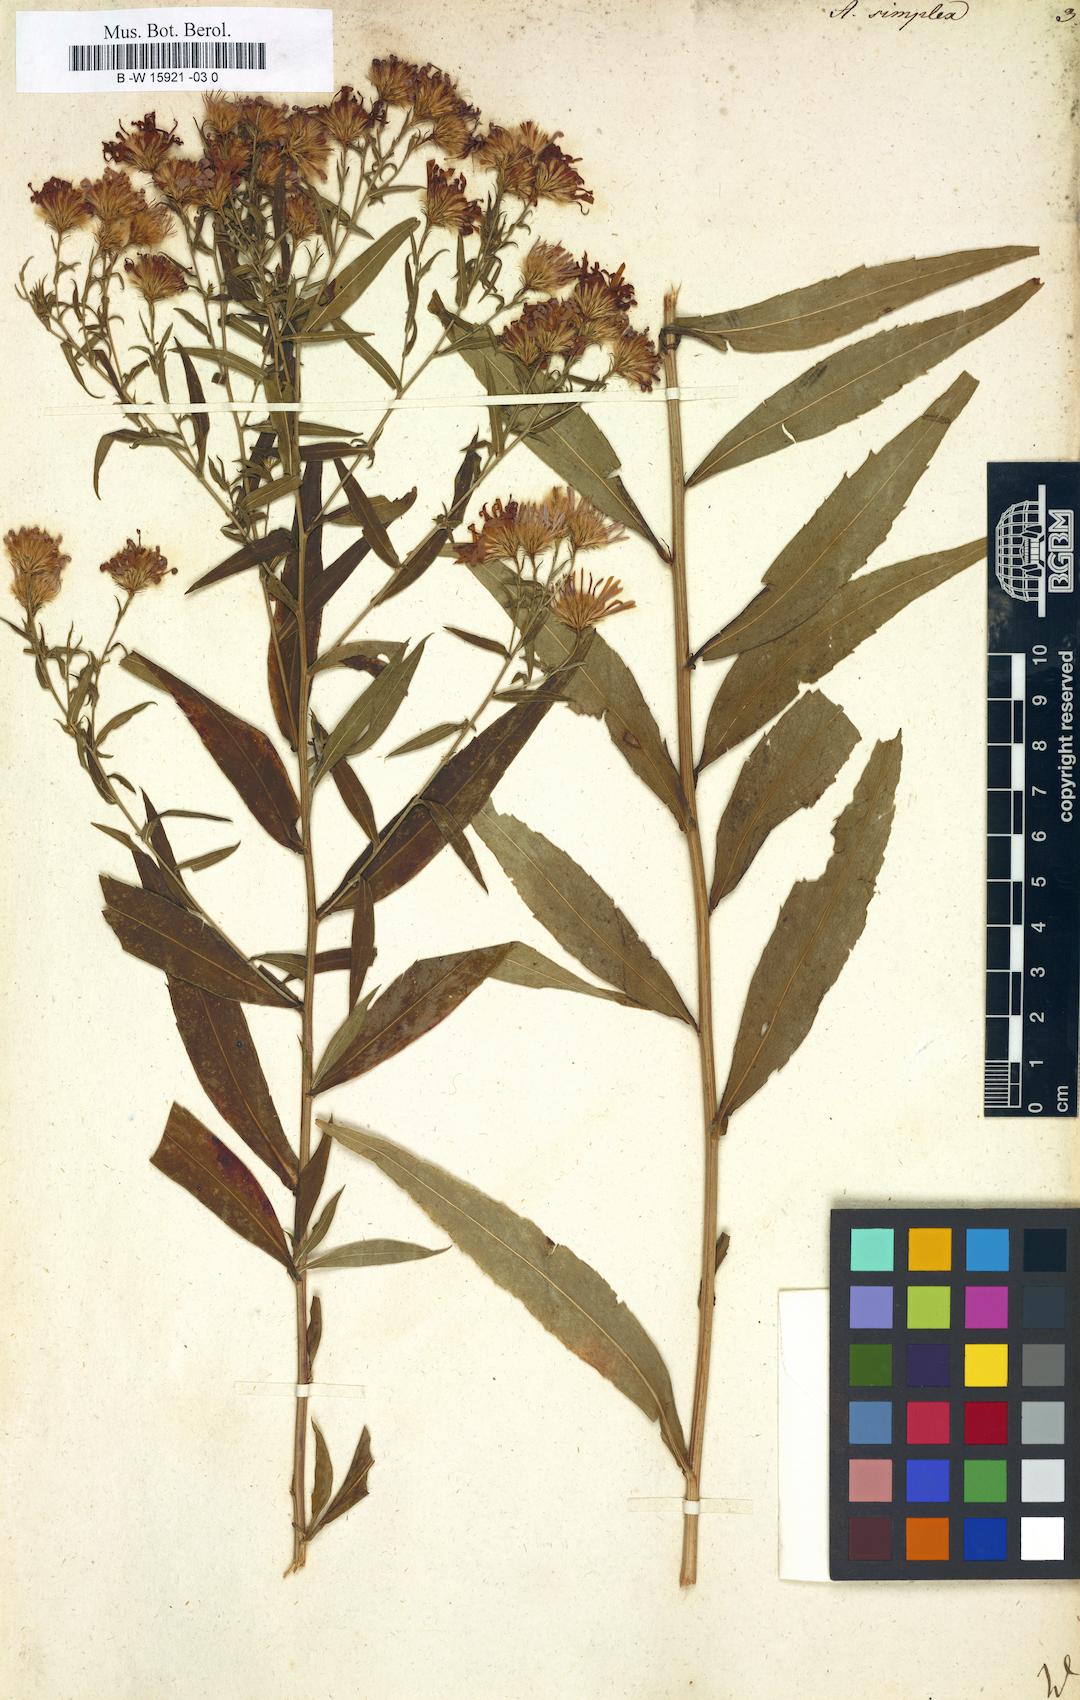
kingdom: Plantae
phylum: Tracheophyta
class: Magnoliopsida
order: Asterales
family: Asteraceae
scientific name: Asteraceae
